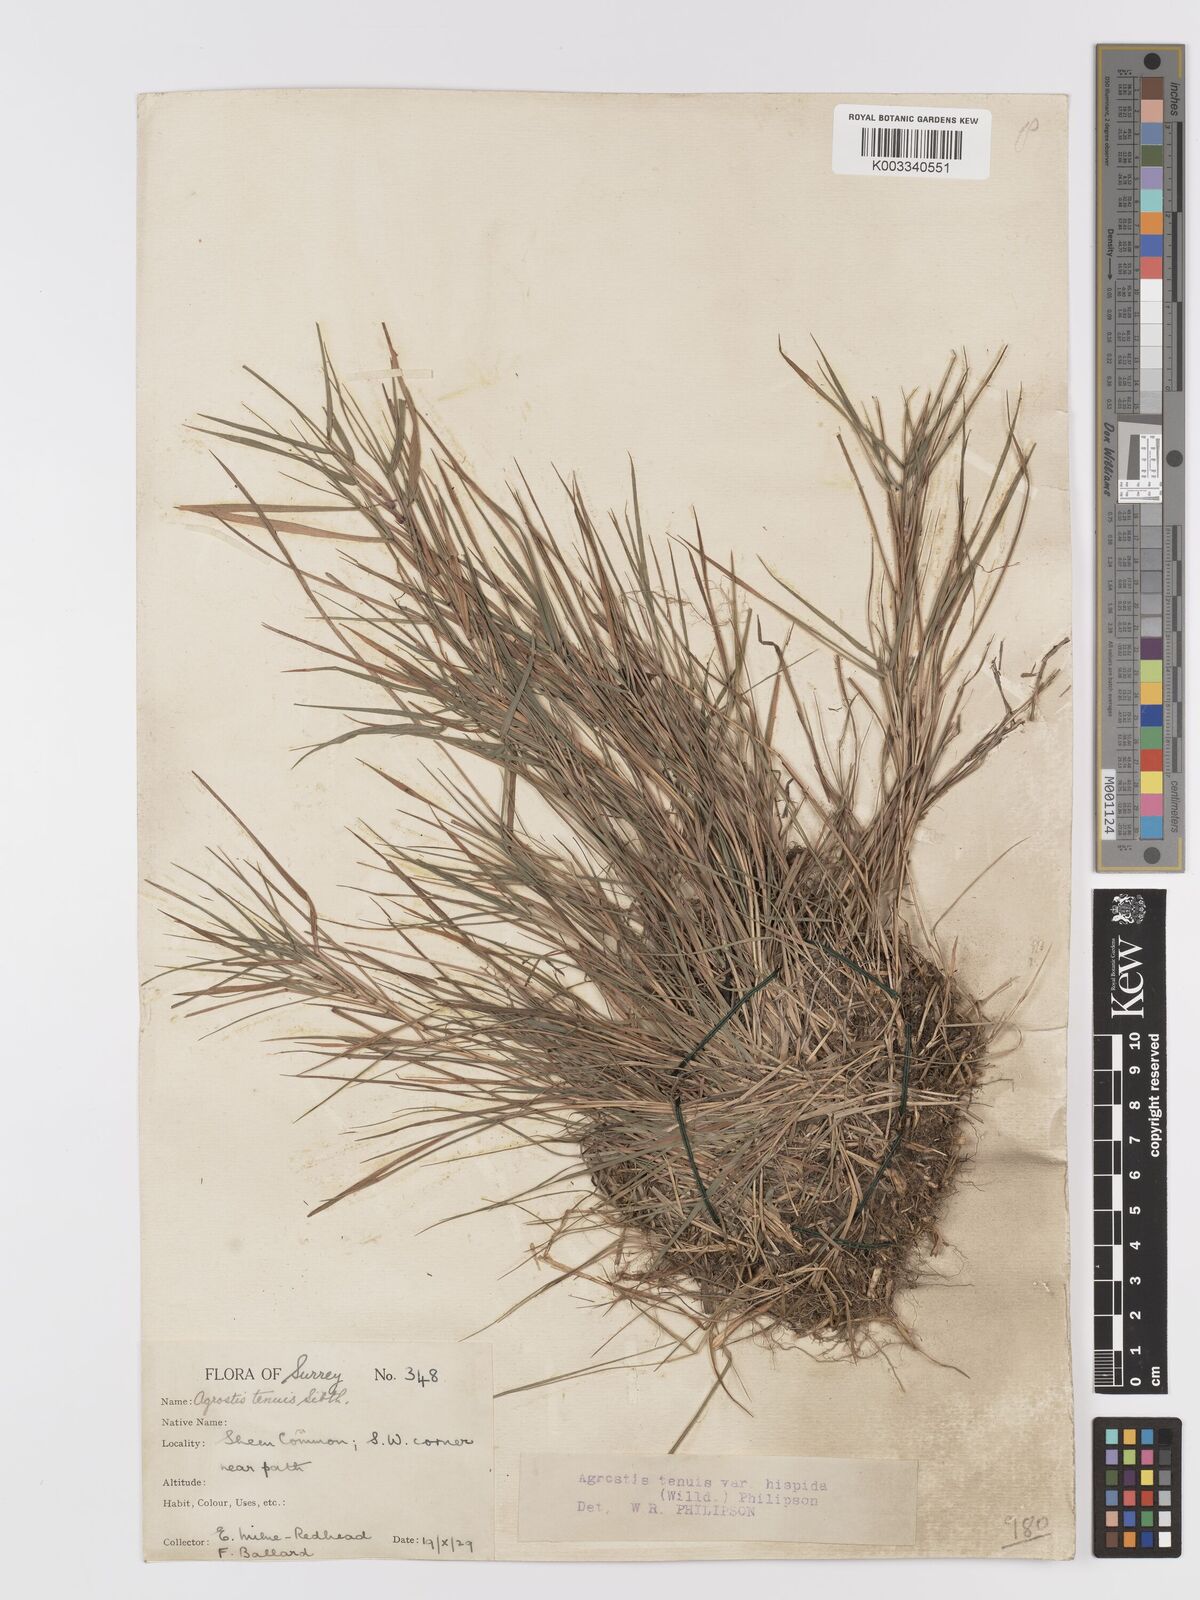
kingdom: Plantae
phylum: Tracheophyta
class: Liliopsida
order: Poales
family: Poaceae
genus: Agrostis
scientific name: Agrostis capillaris
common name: Colonial bentgrass
